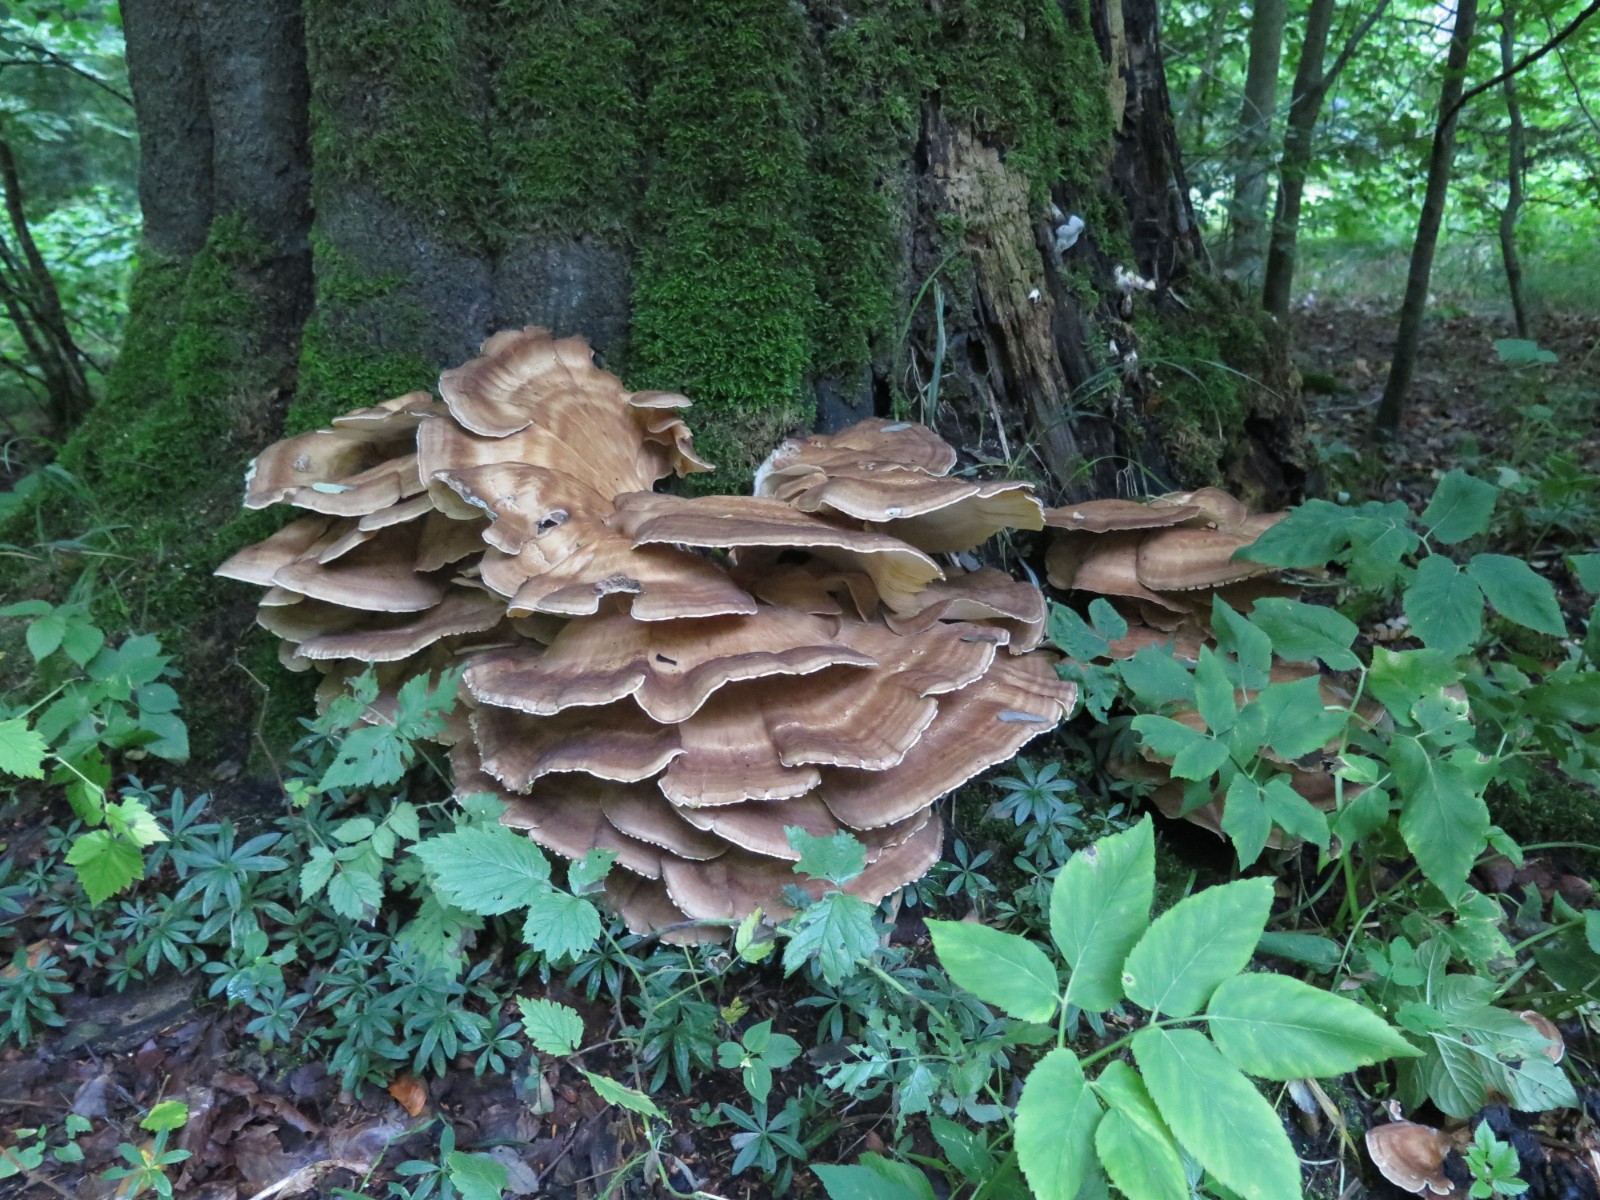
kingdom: Fungi
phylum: Basidiomycota
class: Agaricomycetes
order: Polyporales
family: Meripilaceae
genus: Meripilus
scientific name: Meripilus giganteus
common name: kæmpeporesvamp
